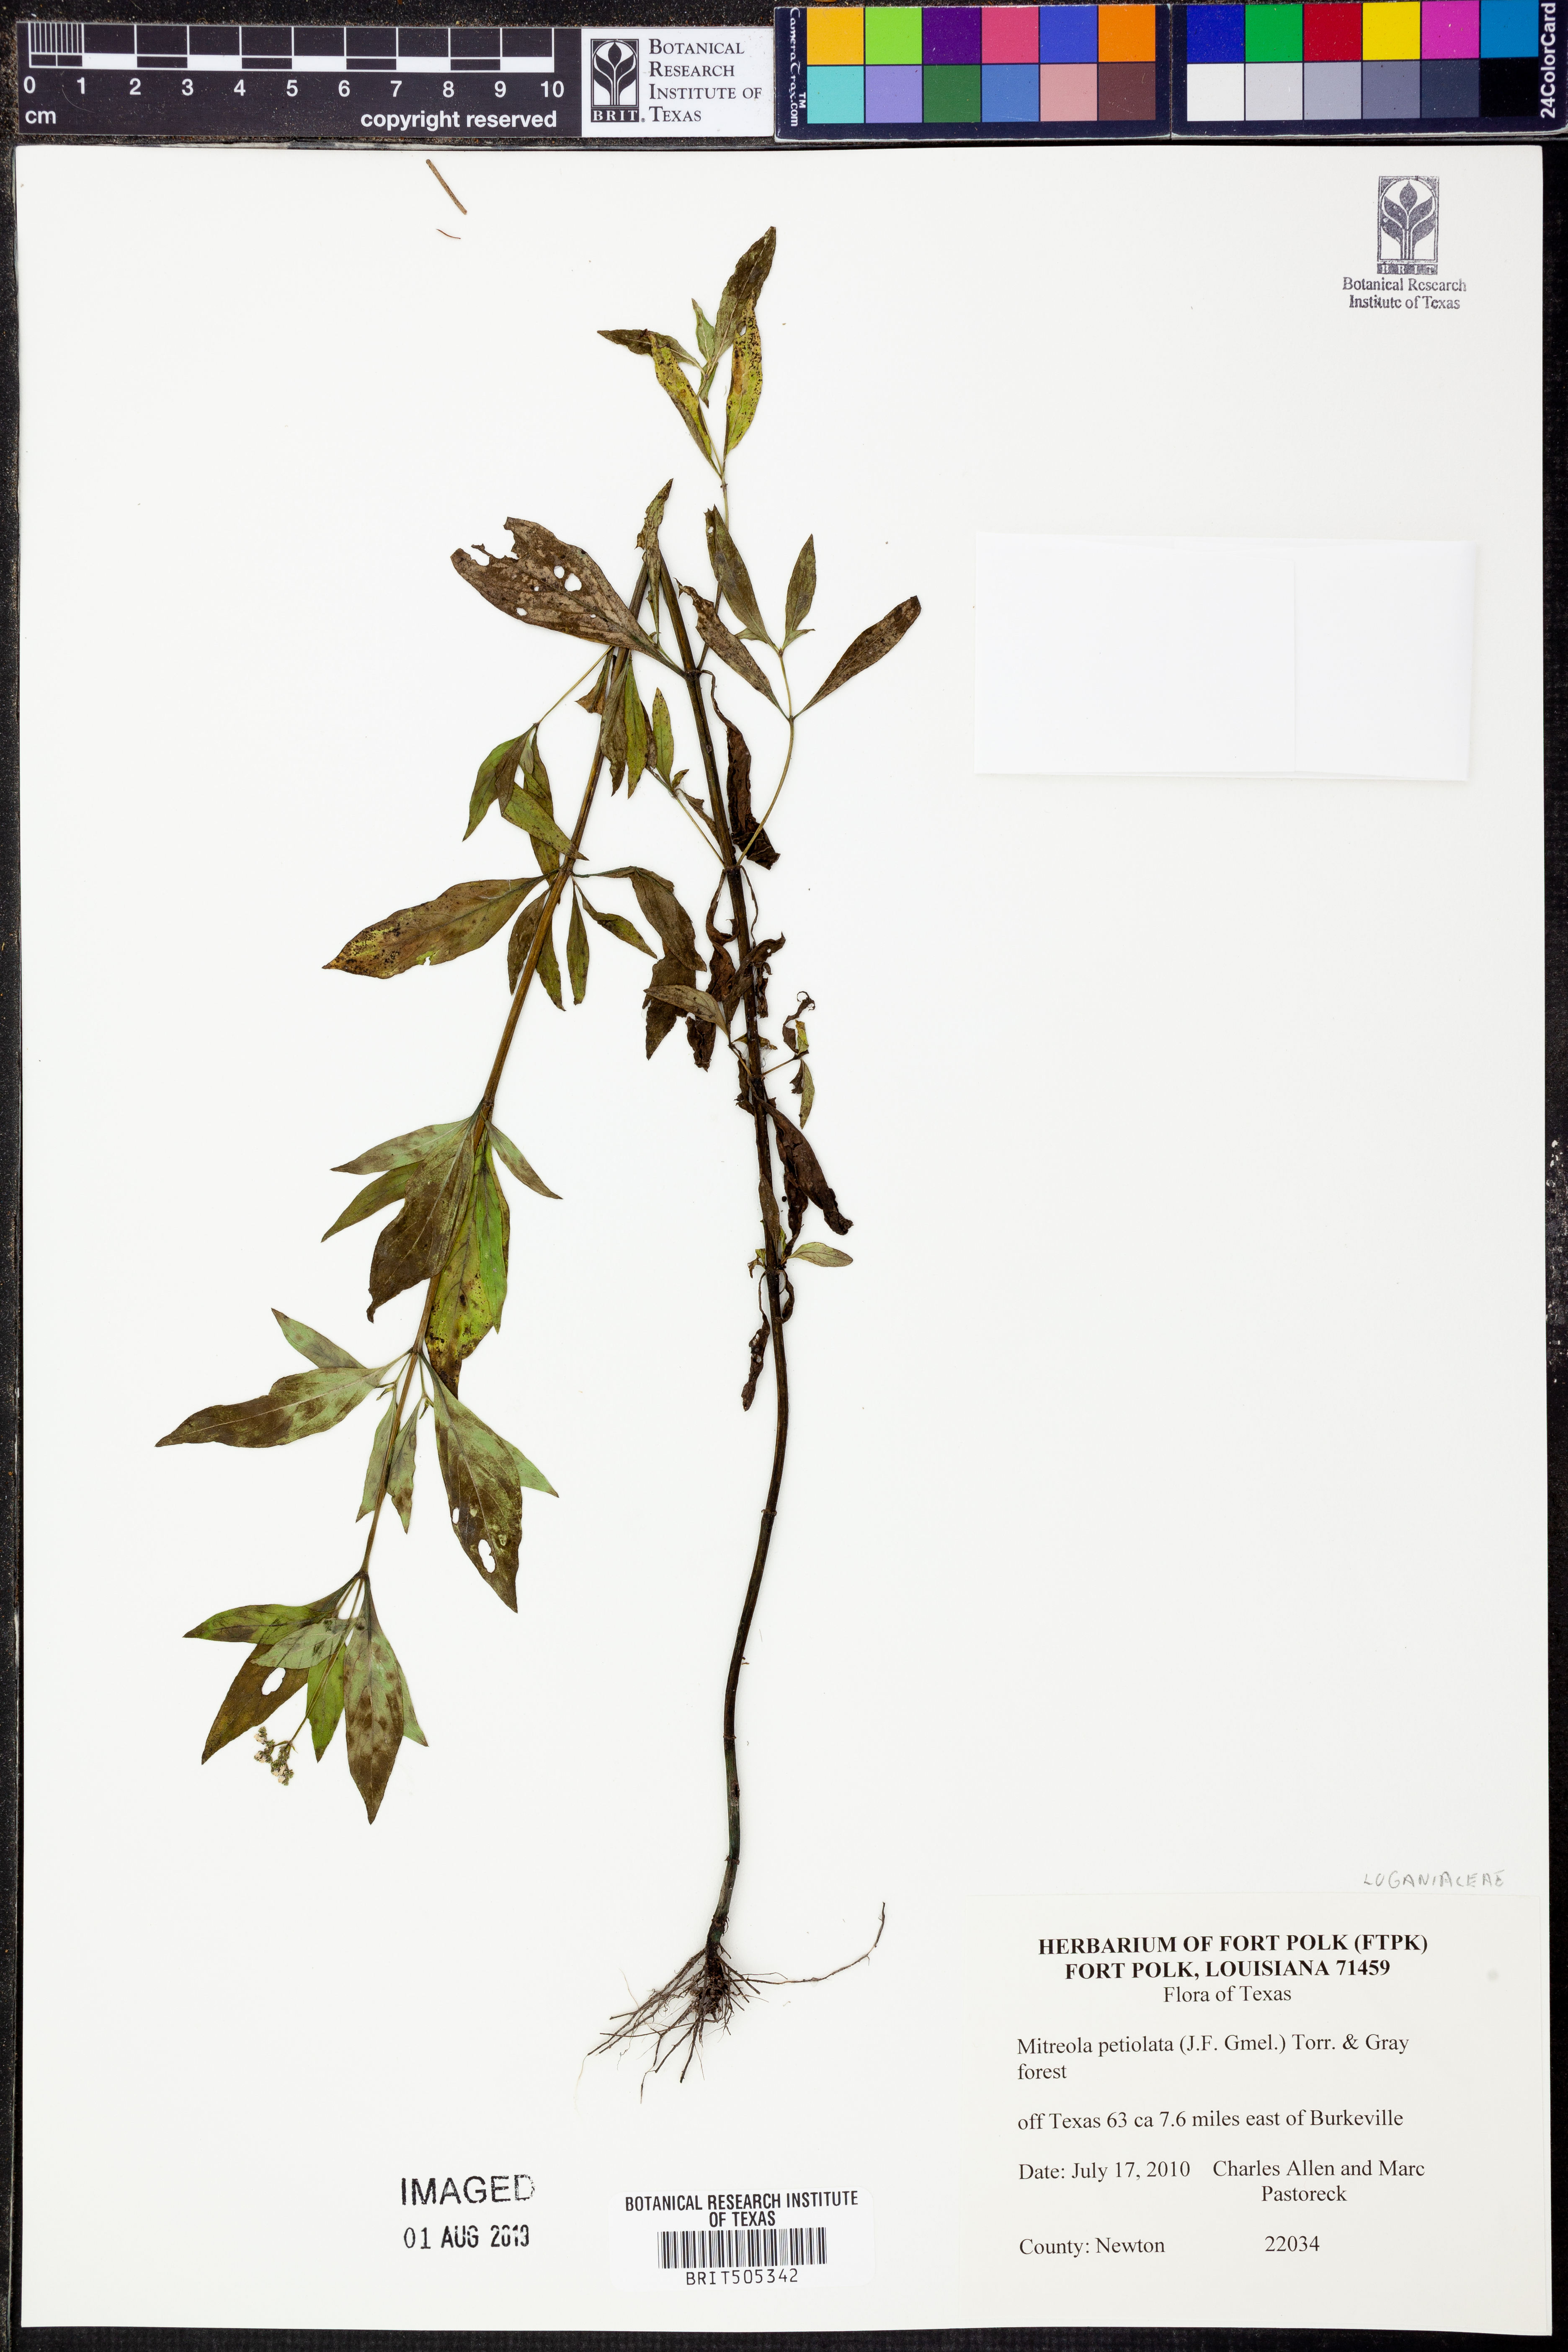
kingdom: Plantae
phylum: Tracheophyta
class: Magnoliopsida
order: Gentianales
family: Loganiaceae
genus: Mitreola
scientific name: Mitreola petiolata
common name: Lax hornpod
